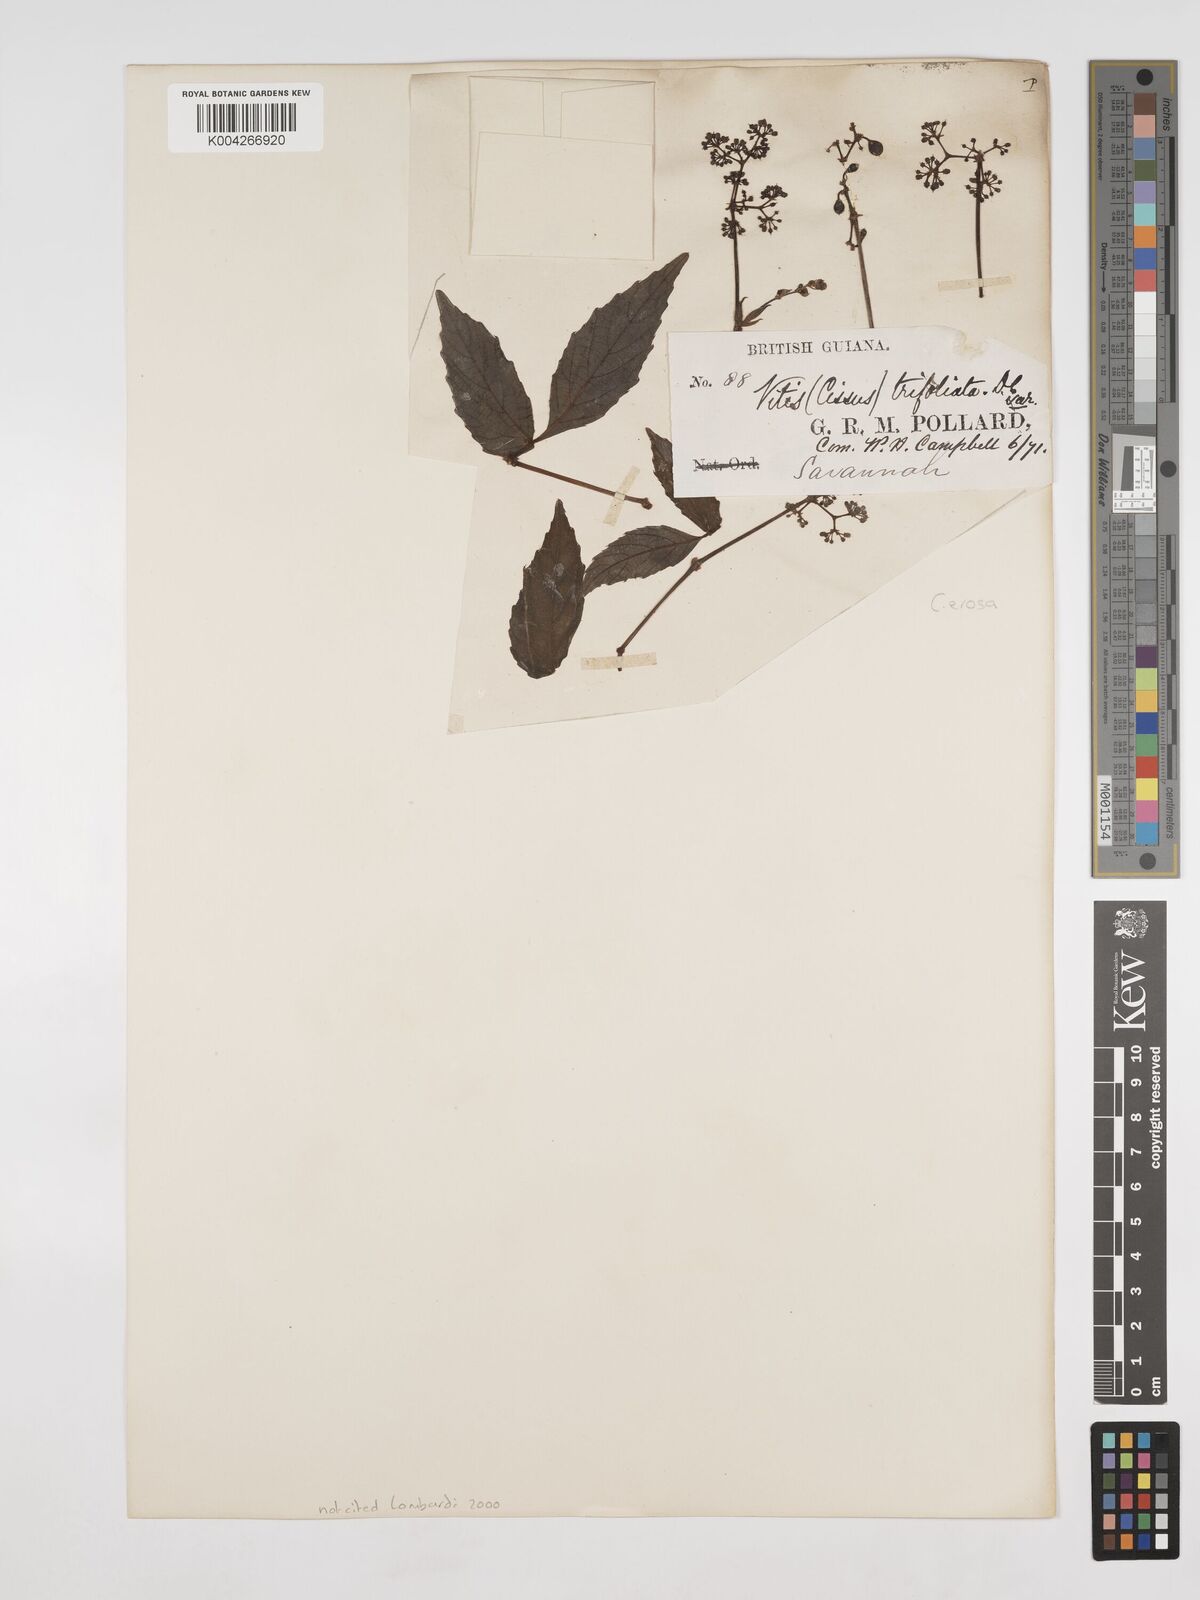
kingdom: Plantae
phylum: Tracheophyta
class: Magnoliopsida
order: Vitales
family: Vitaceae
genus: Cissus
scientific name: Cissus erosa
